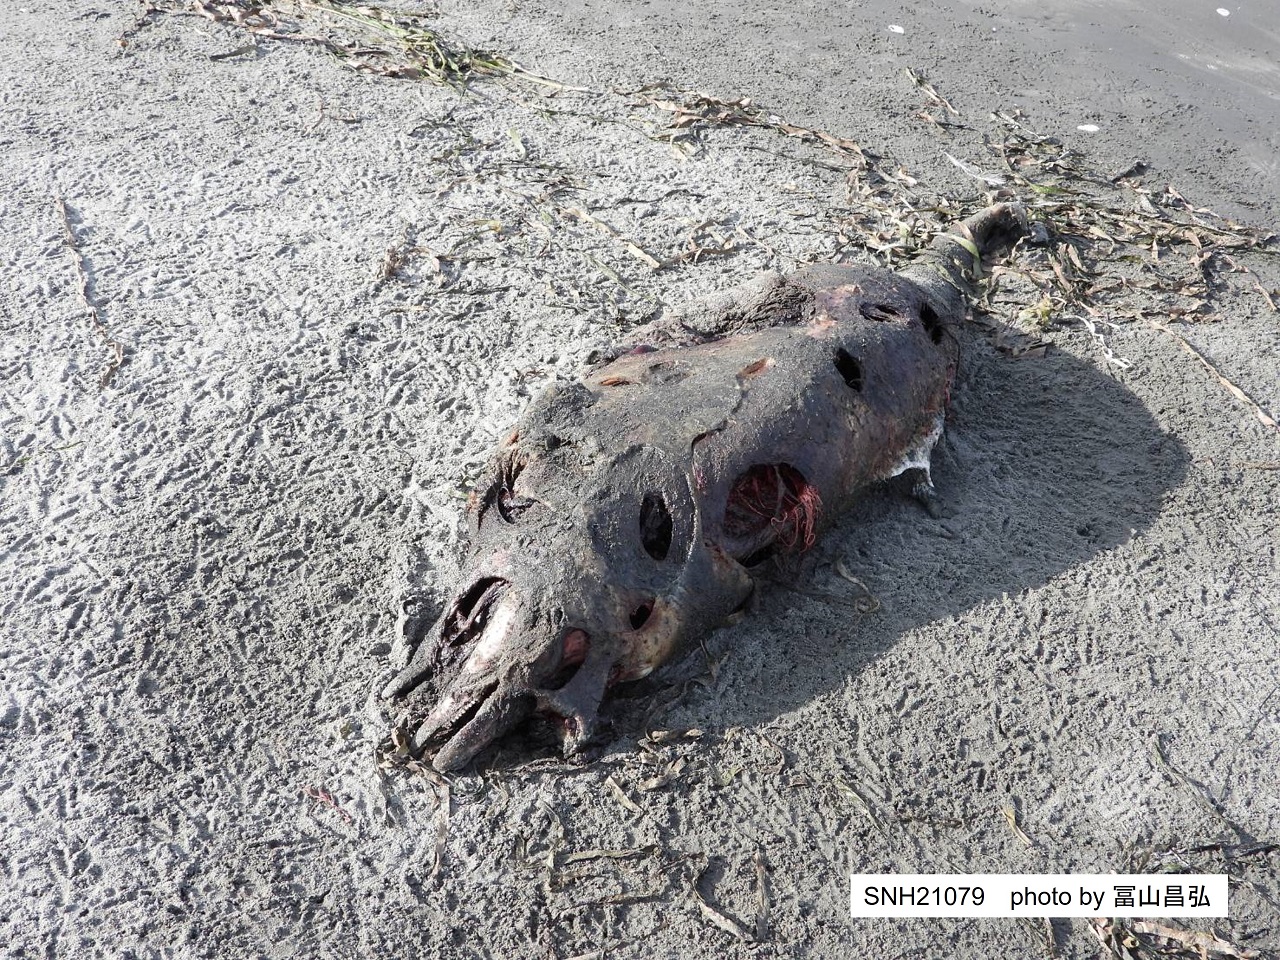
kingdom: Animalia
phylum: Chordata
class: Mammalia
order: Cetacea
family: Phocoenidae
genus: Phocoena
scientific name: Phocoena phocoena
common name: Harbour porpoise
